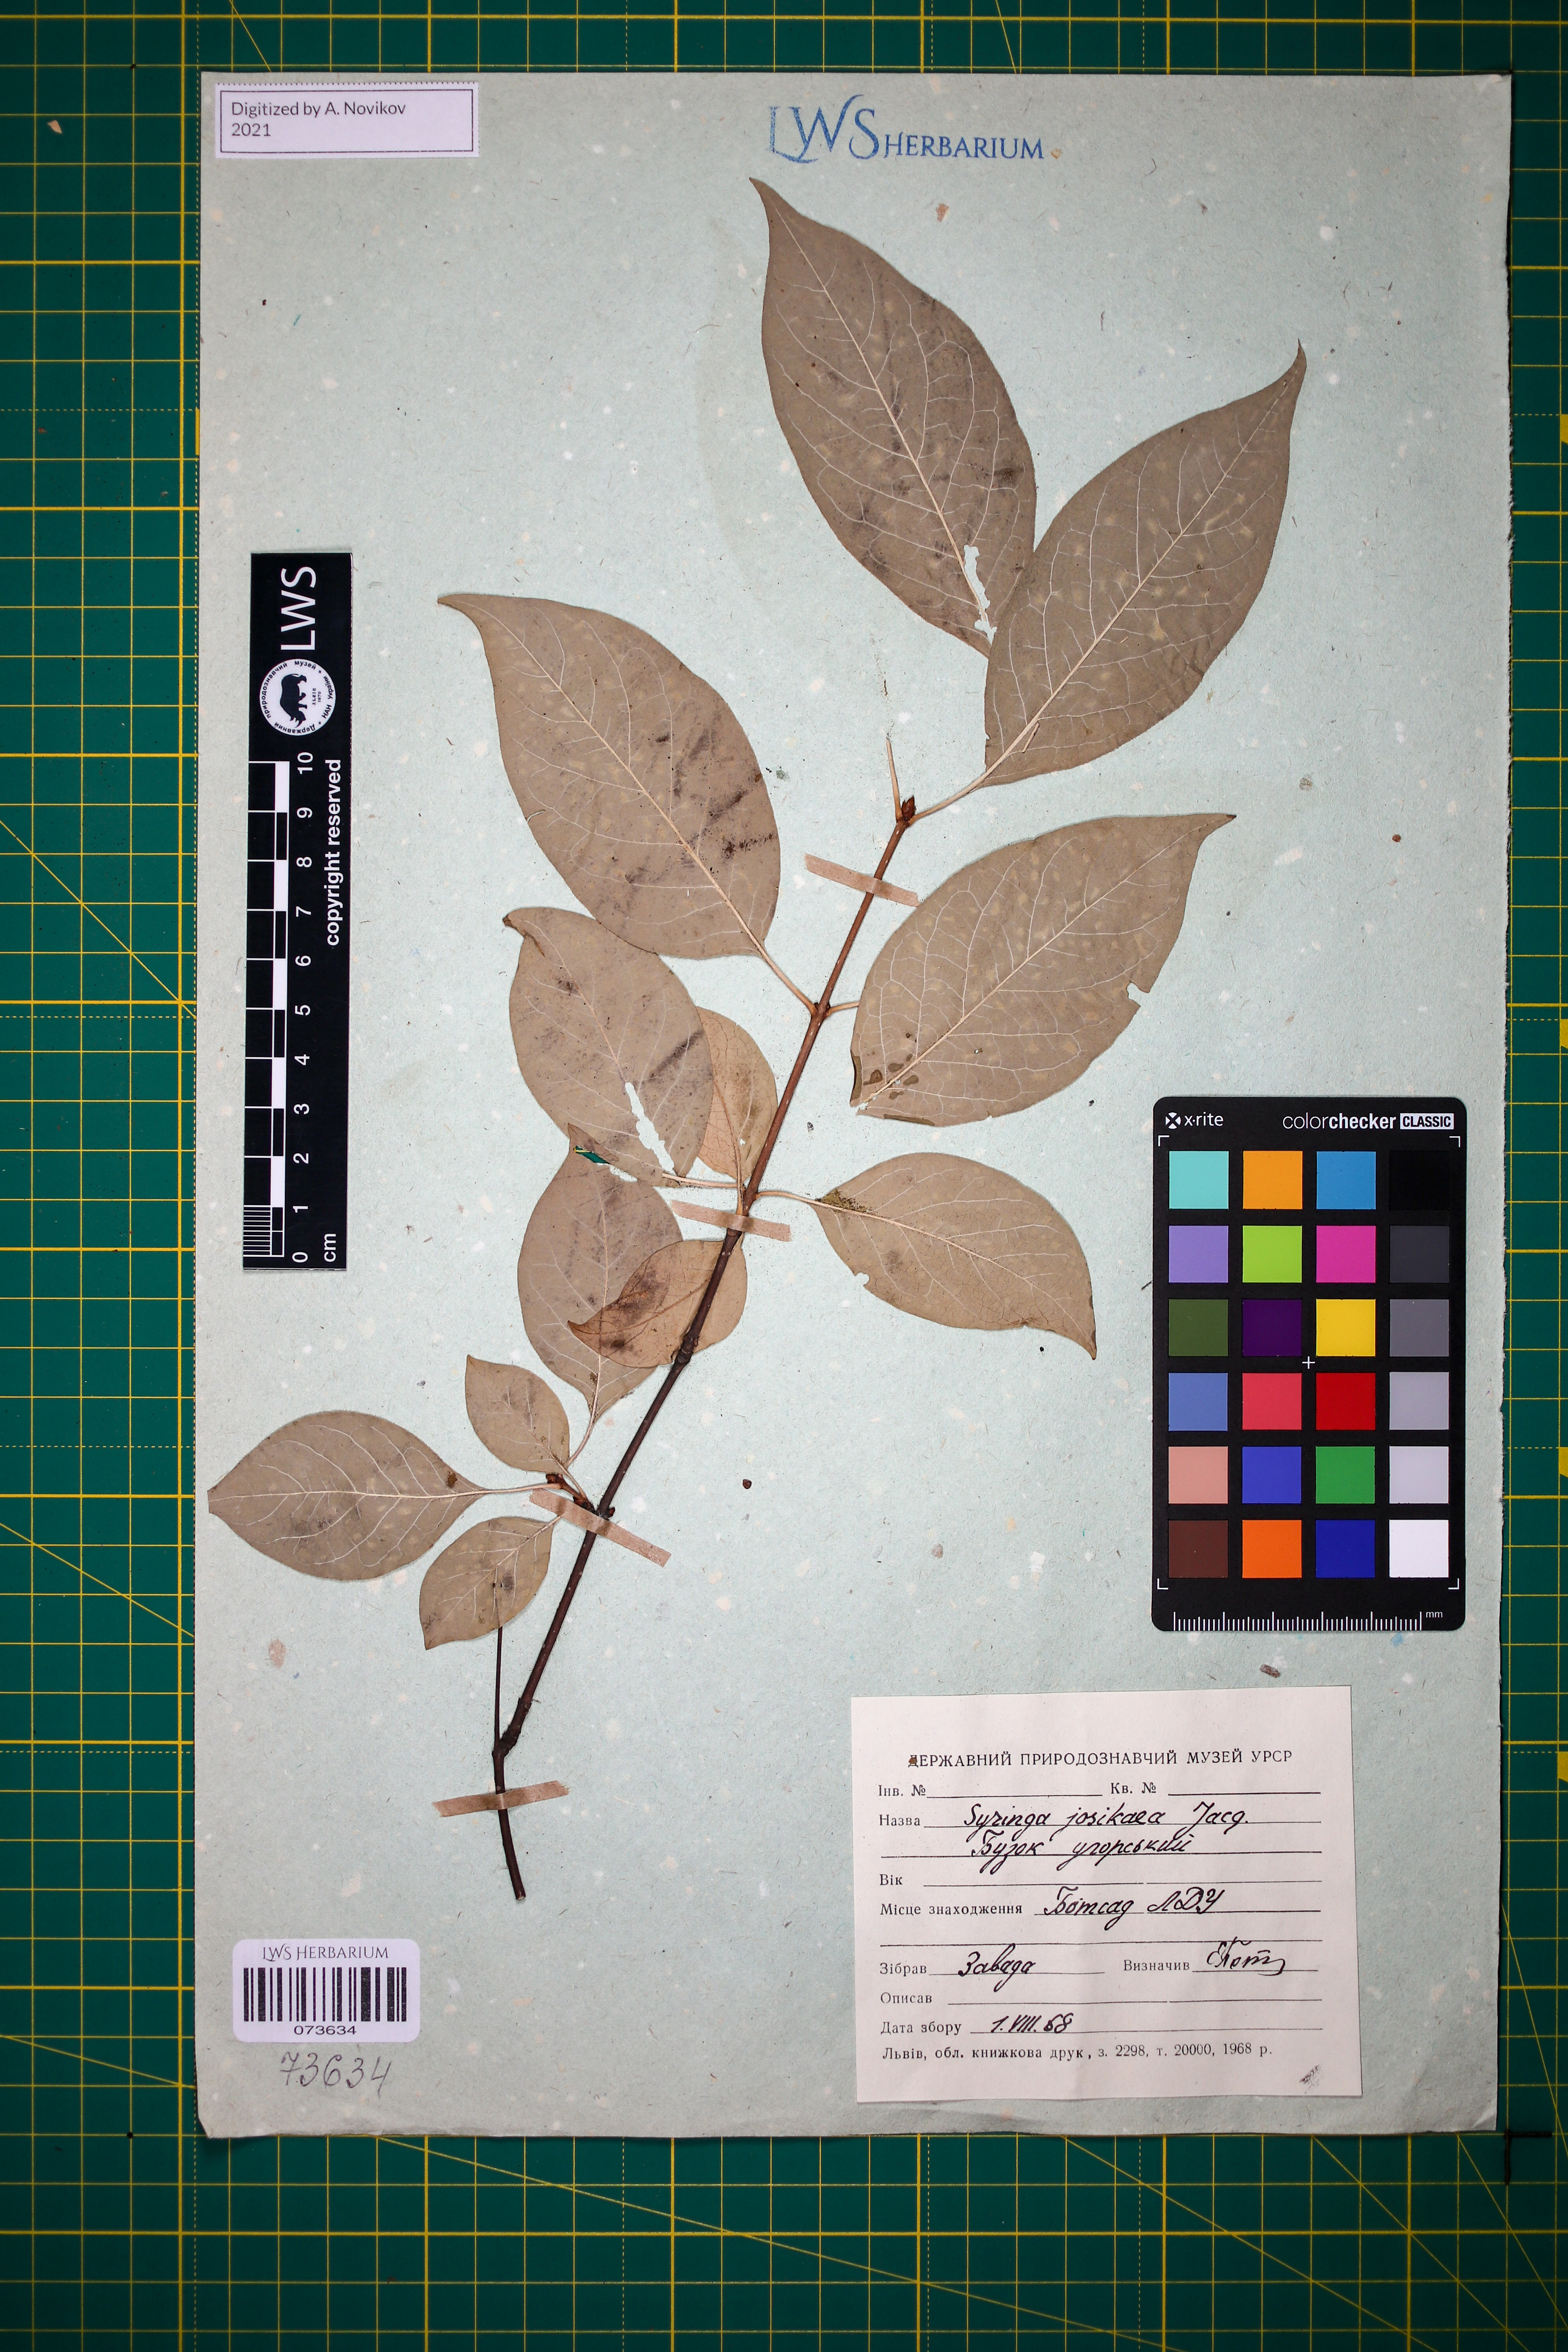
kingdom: Plantae
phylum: Tracheophyta
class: Magnoliopsida
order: Lamiales
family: Oleaceae
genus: Syringa
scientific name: Syringa josikaea
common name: Hungarian lilac
